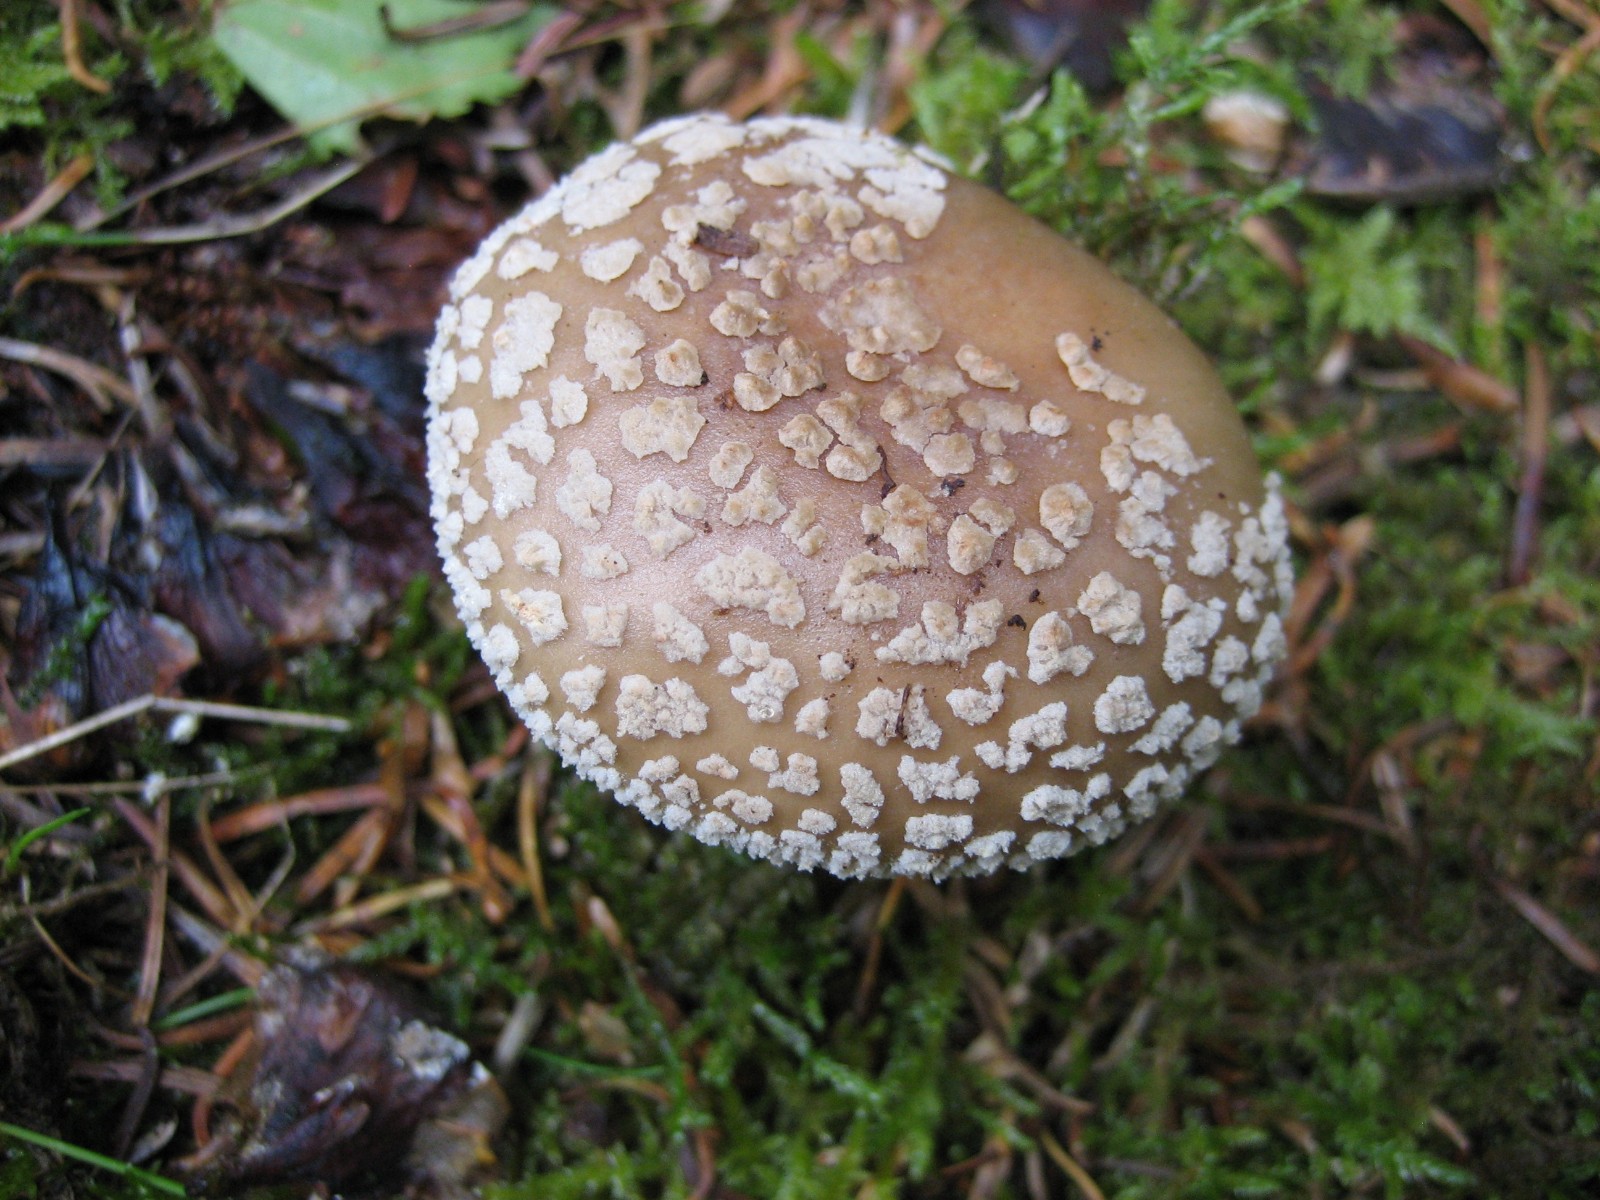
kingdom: Fungi
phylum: Basidiomycota
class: Agaricomycetes
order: Agaricales
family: Amanitaceae
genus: Amanita
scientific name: Amanita
